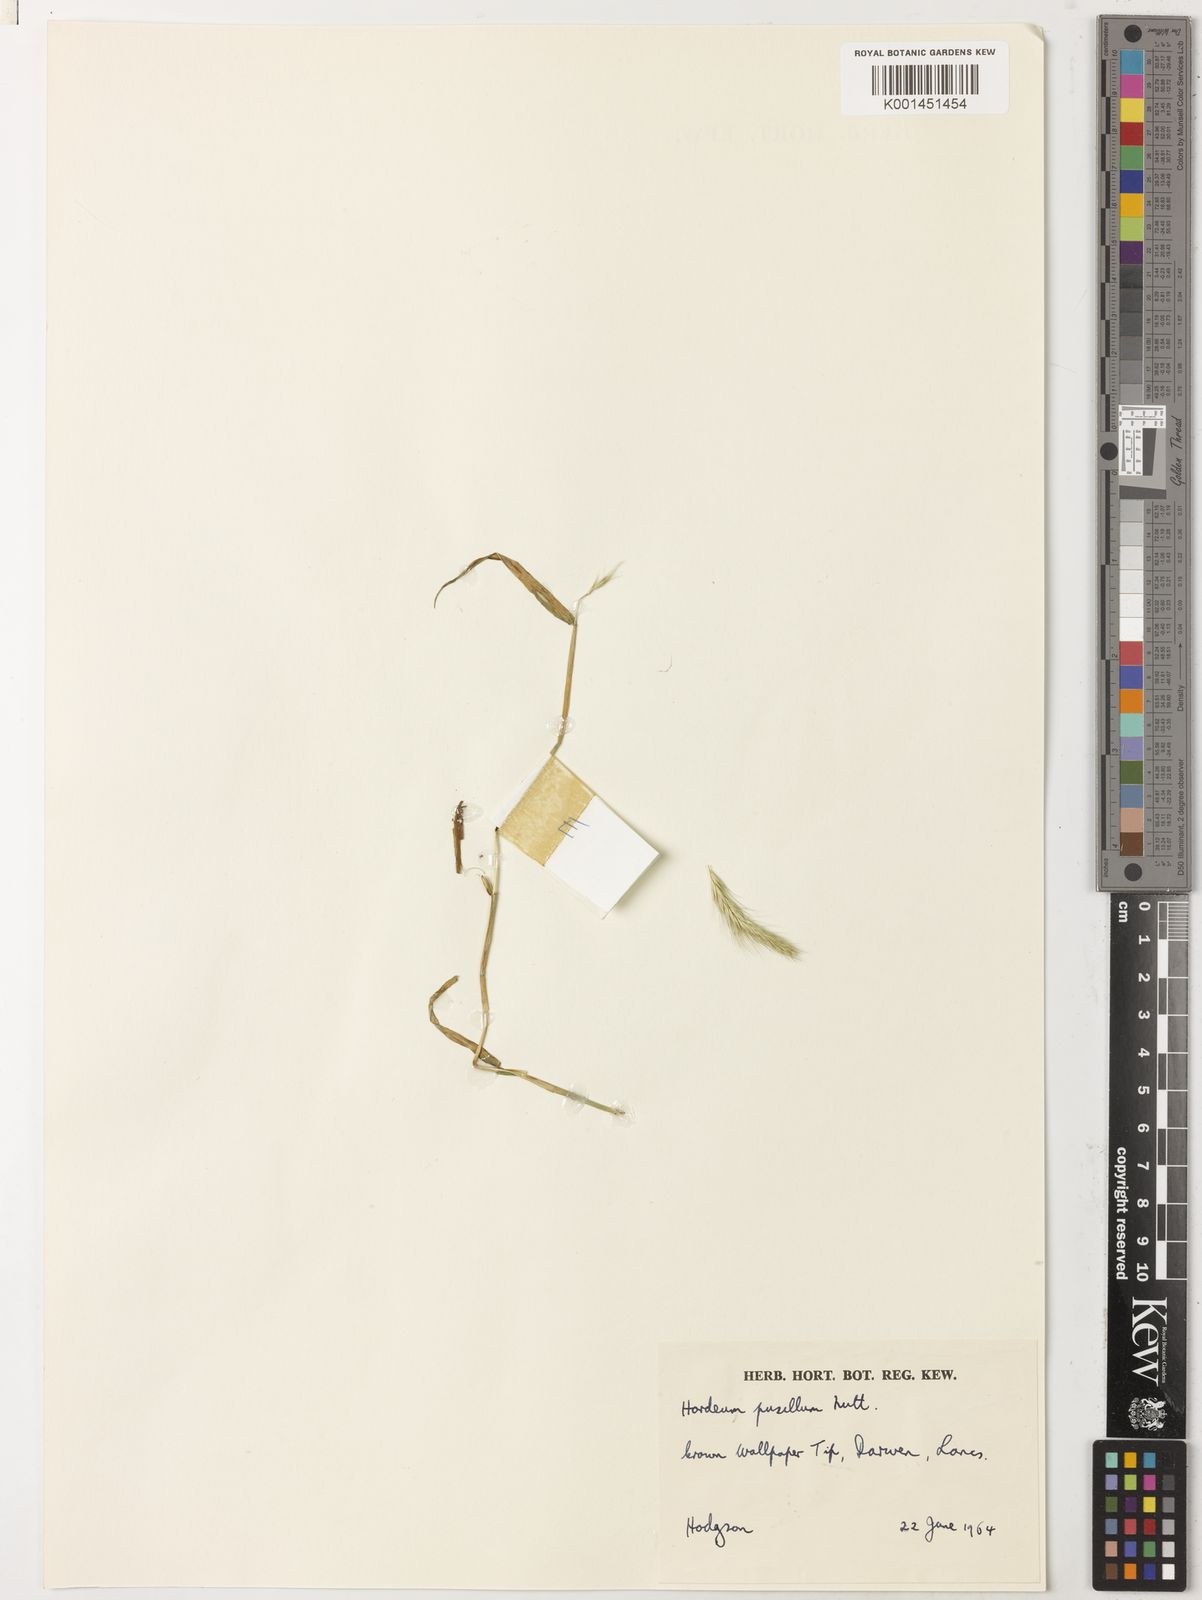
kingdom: Plantae
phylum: Tracheophyta
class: Liliopsida
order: Poales
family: Poaceae
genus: Hordeum
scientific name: Hordeum pusillum
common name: Little barley
